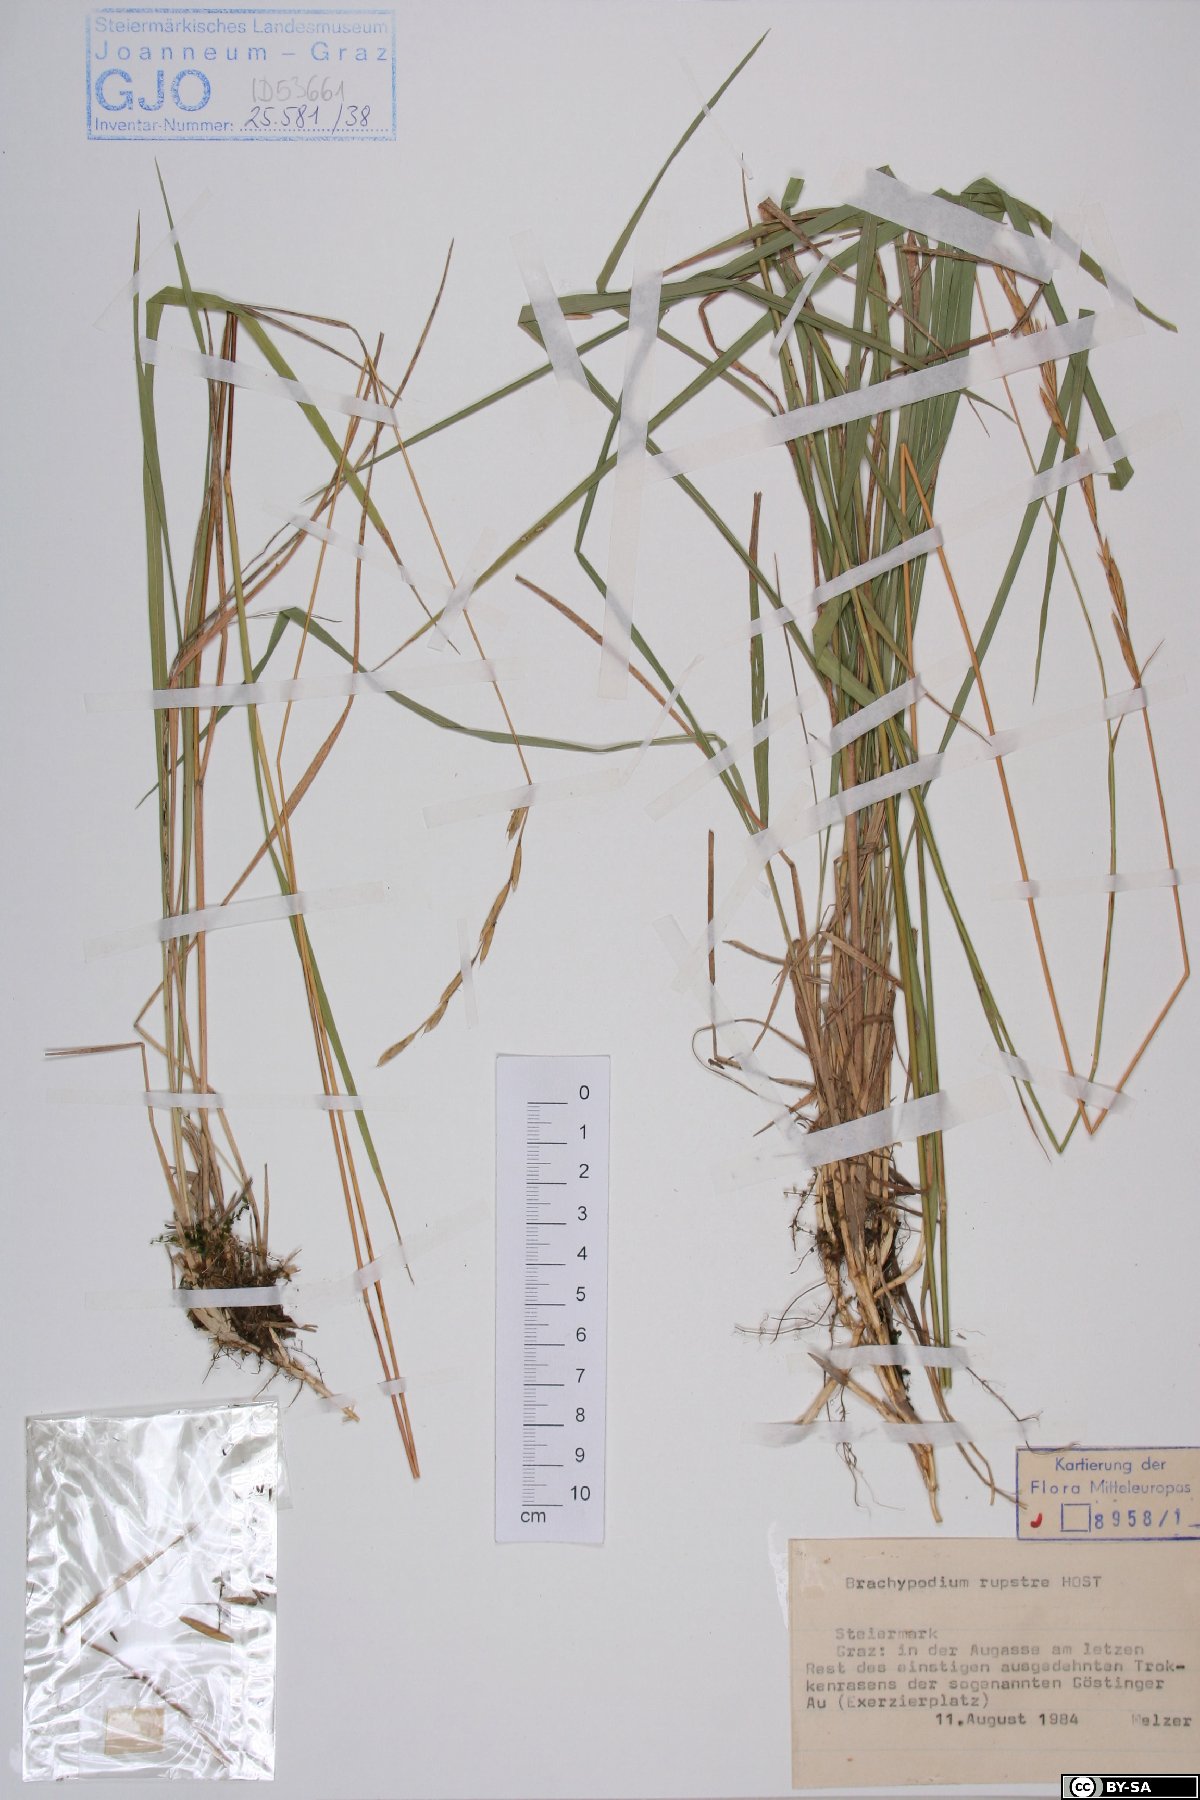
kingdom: Plantae
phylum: Tracheophyta
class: Liliopsida
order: Poales
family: Poaceae
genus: Brachypodium
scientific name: Brachypodium pinnatum
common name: Tor grass
